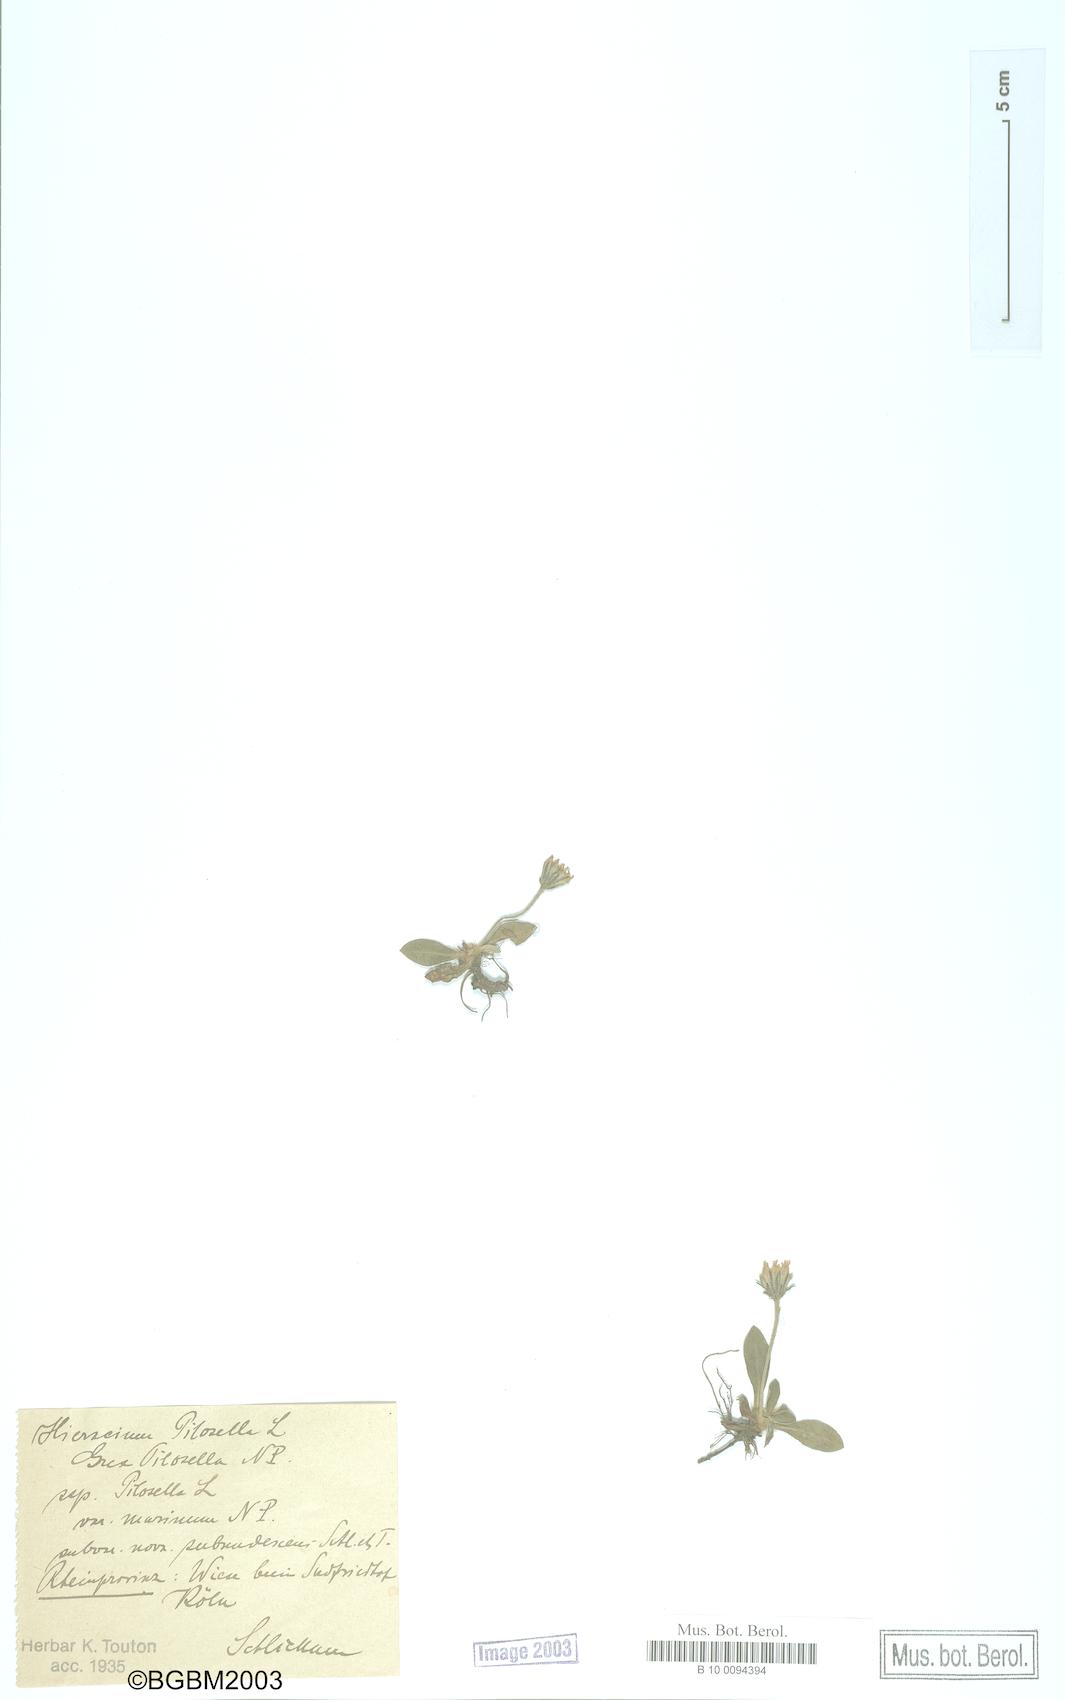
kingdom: Plantae
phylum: Tracheophyta
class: Magnoliopsida
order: Asterales
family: Asteraceae
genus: Pilosella
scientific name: Pilosella velutina
